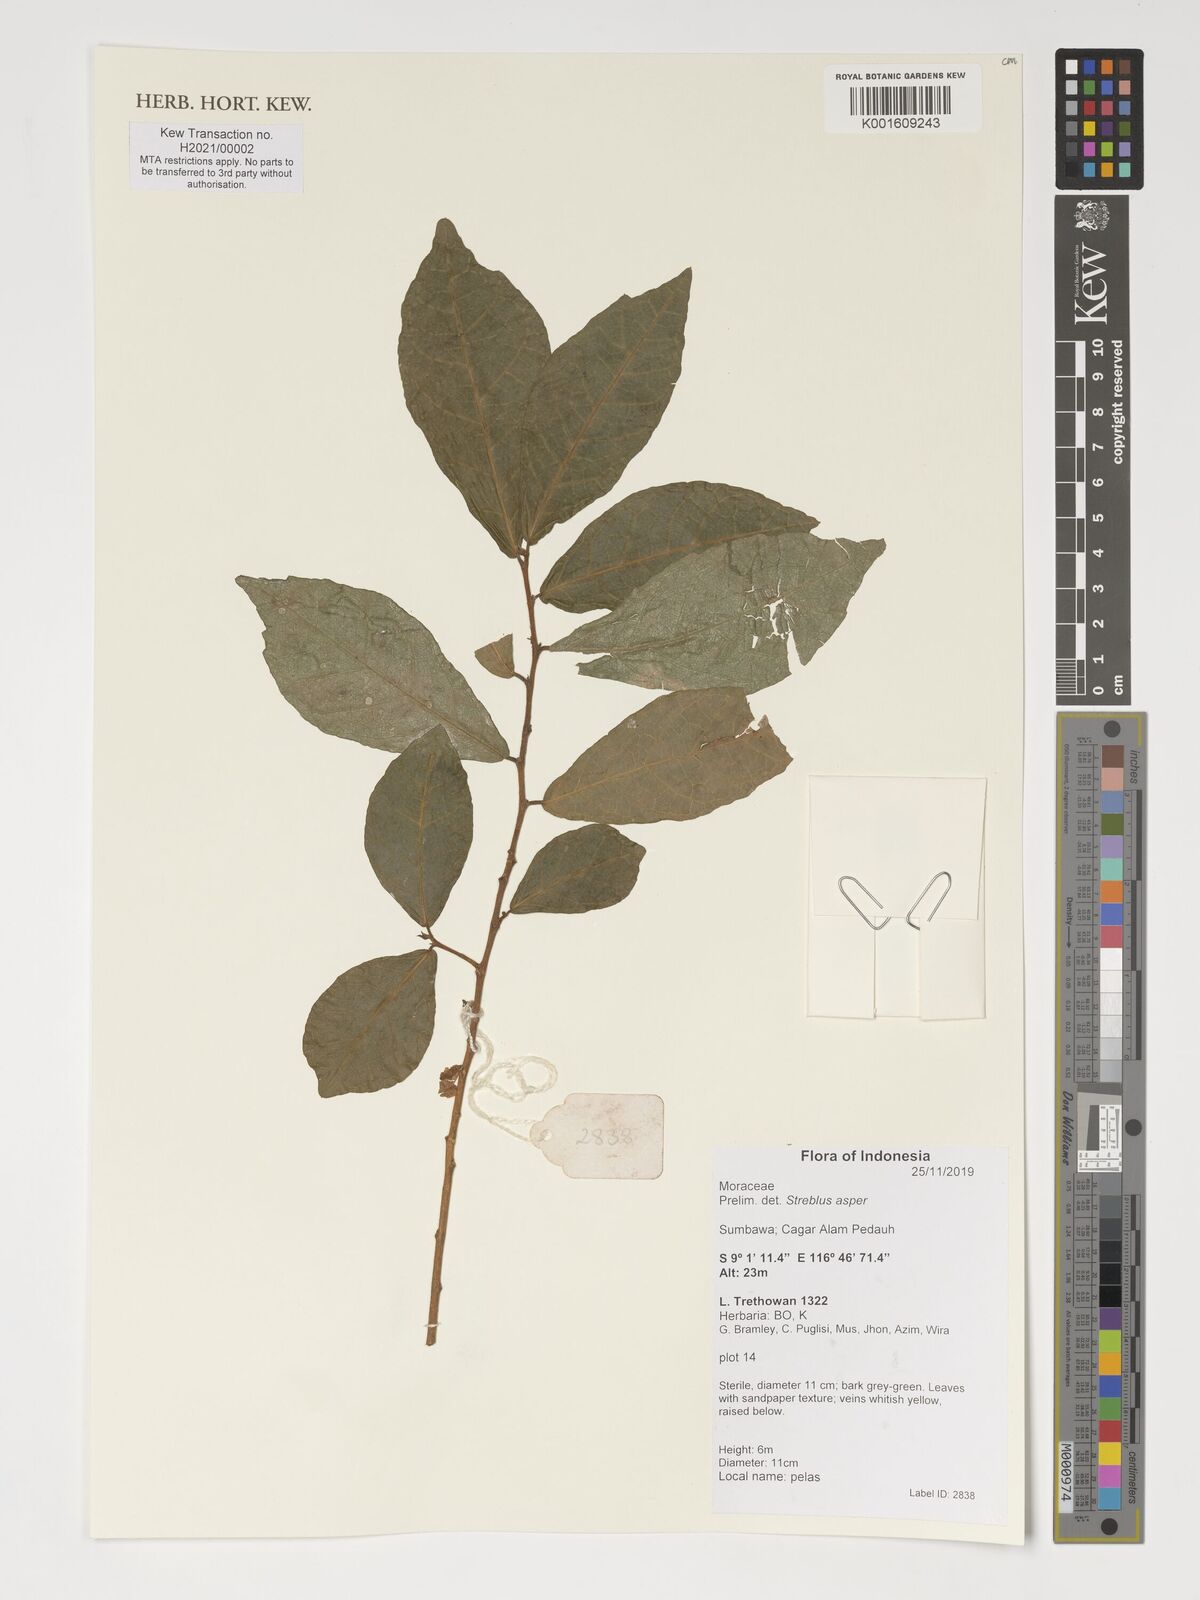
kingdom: Plantae
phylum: Tracheophyta
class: Magnoliopsida
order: Rosales
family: Moraceae
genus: Streblus
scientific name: Streblus asper
